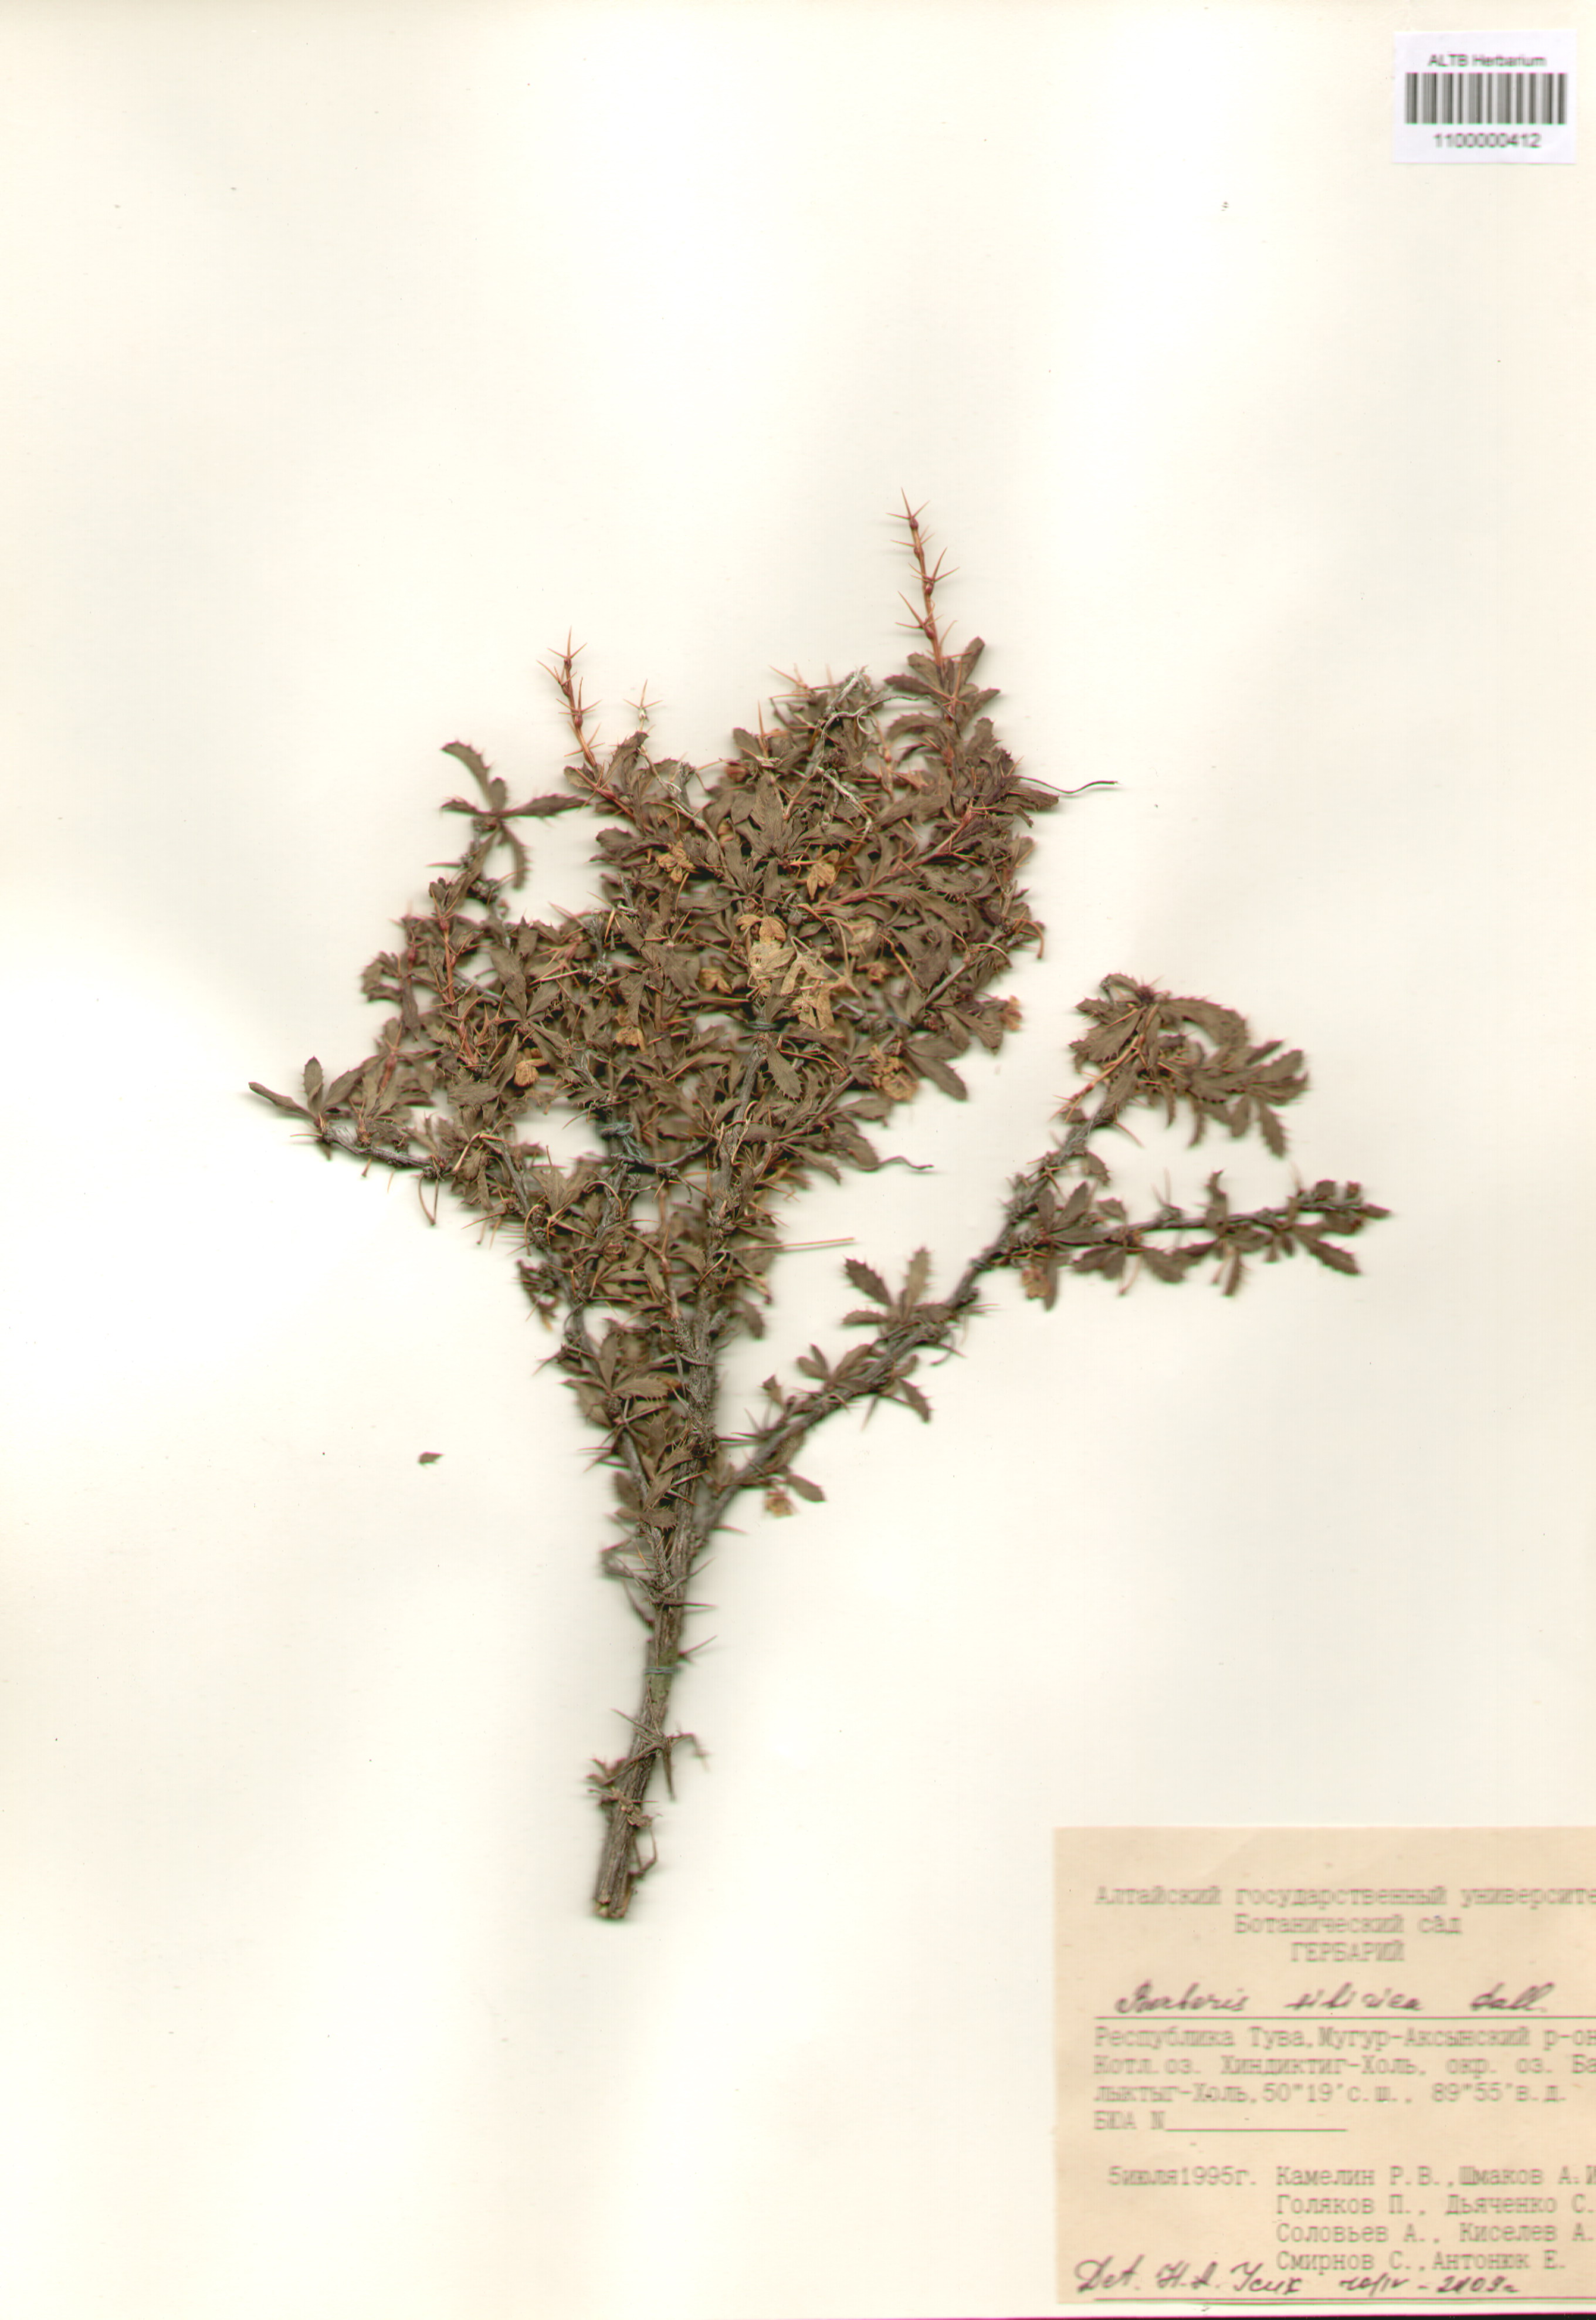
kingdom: Plantae
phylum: Tracheophyta
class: Magnoliopsida
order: Ranunculales
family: Berberidaceae
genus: Berberis
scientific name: Berberis sibirica
